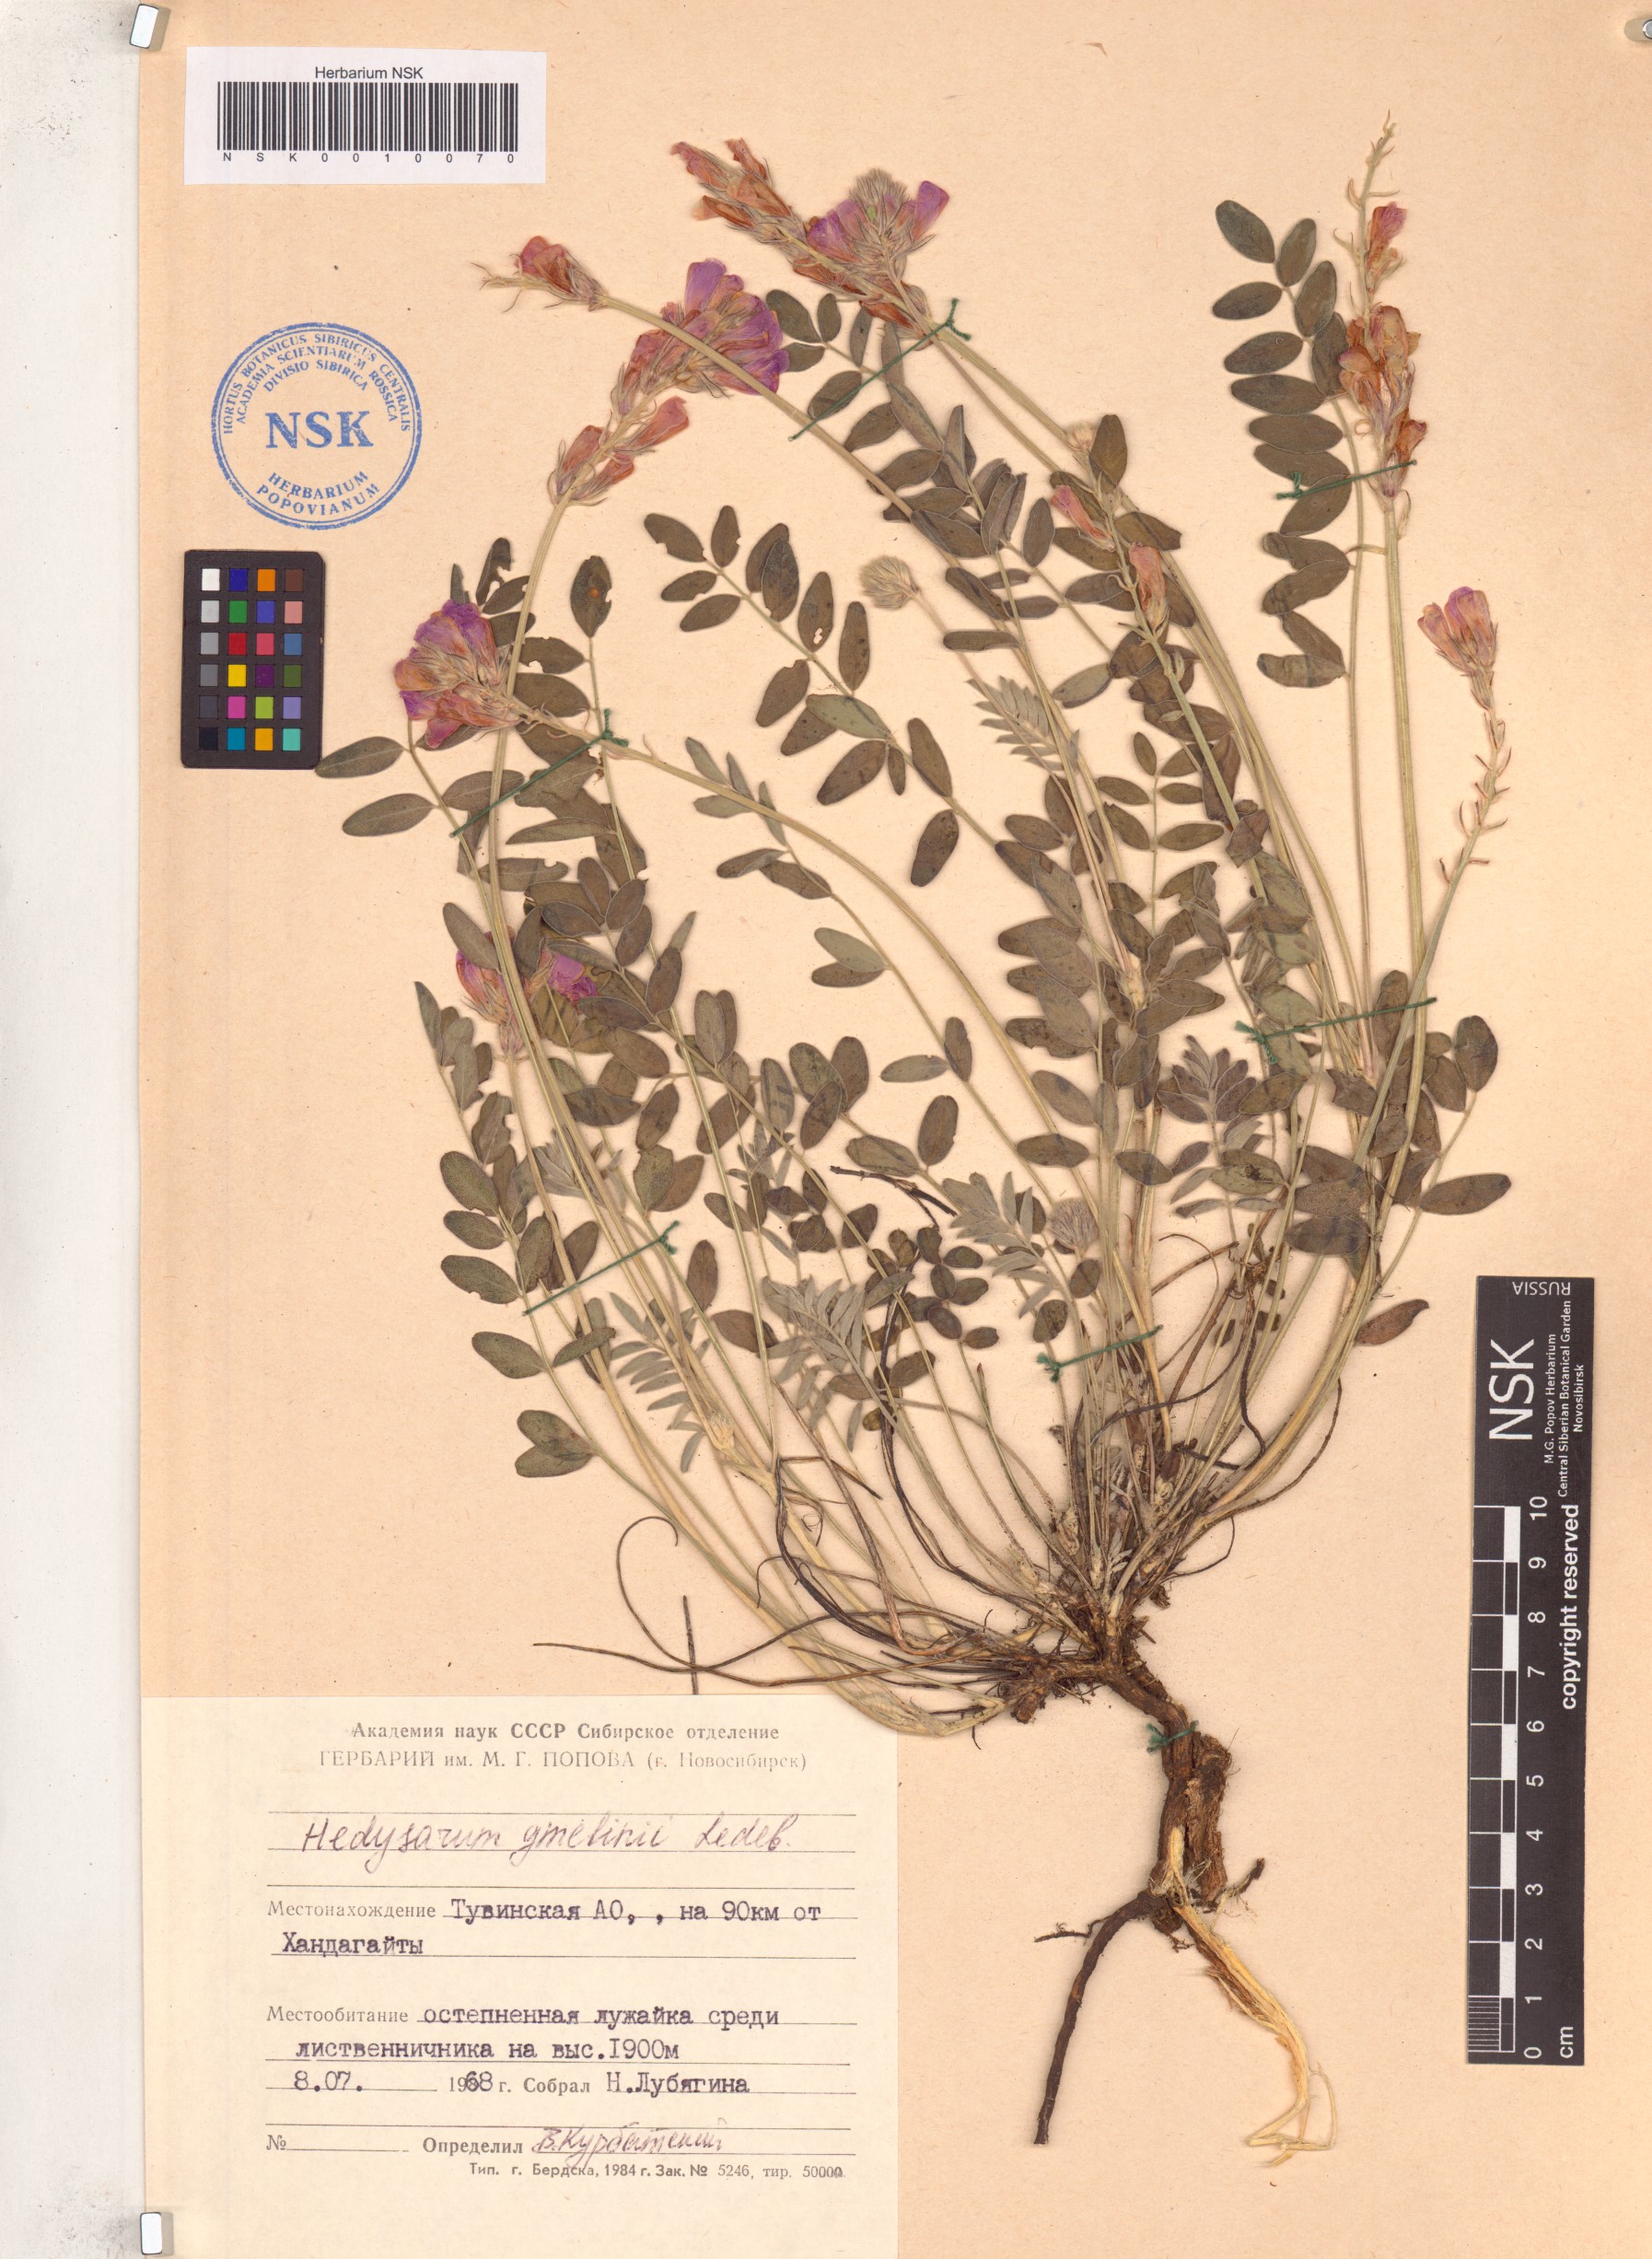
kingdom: Plantae
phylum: Tracheophyta
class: Magnoliopsida
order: Fabales
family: Fabaceae
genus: Hedysarum
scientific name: Hedysarum gmelinii
